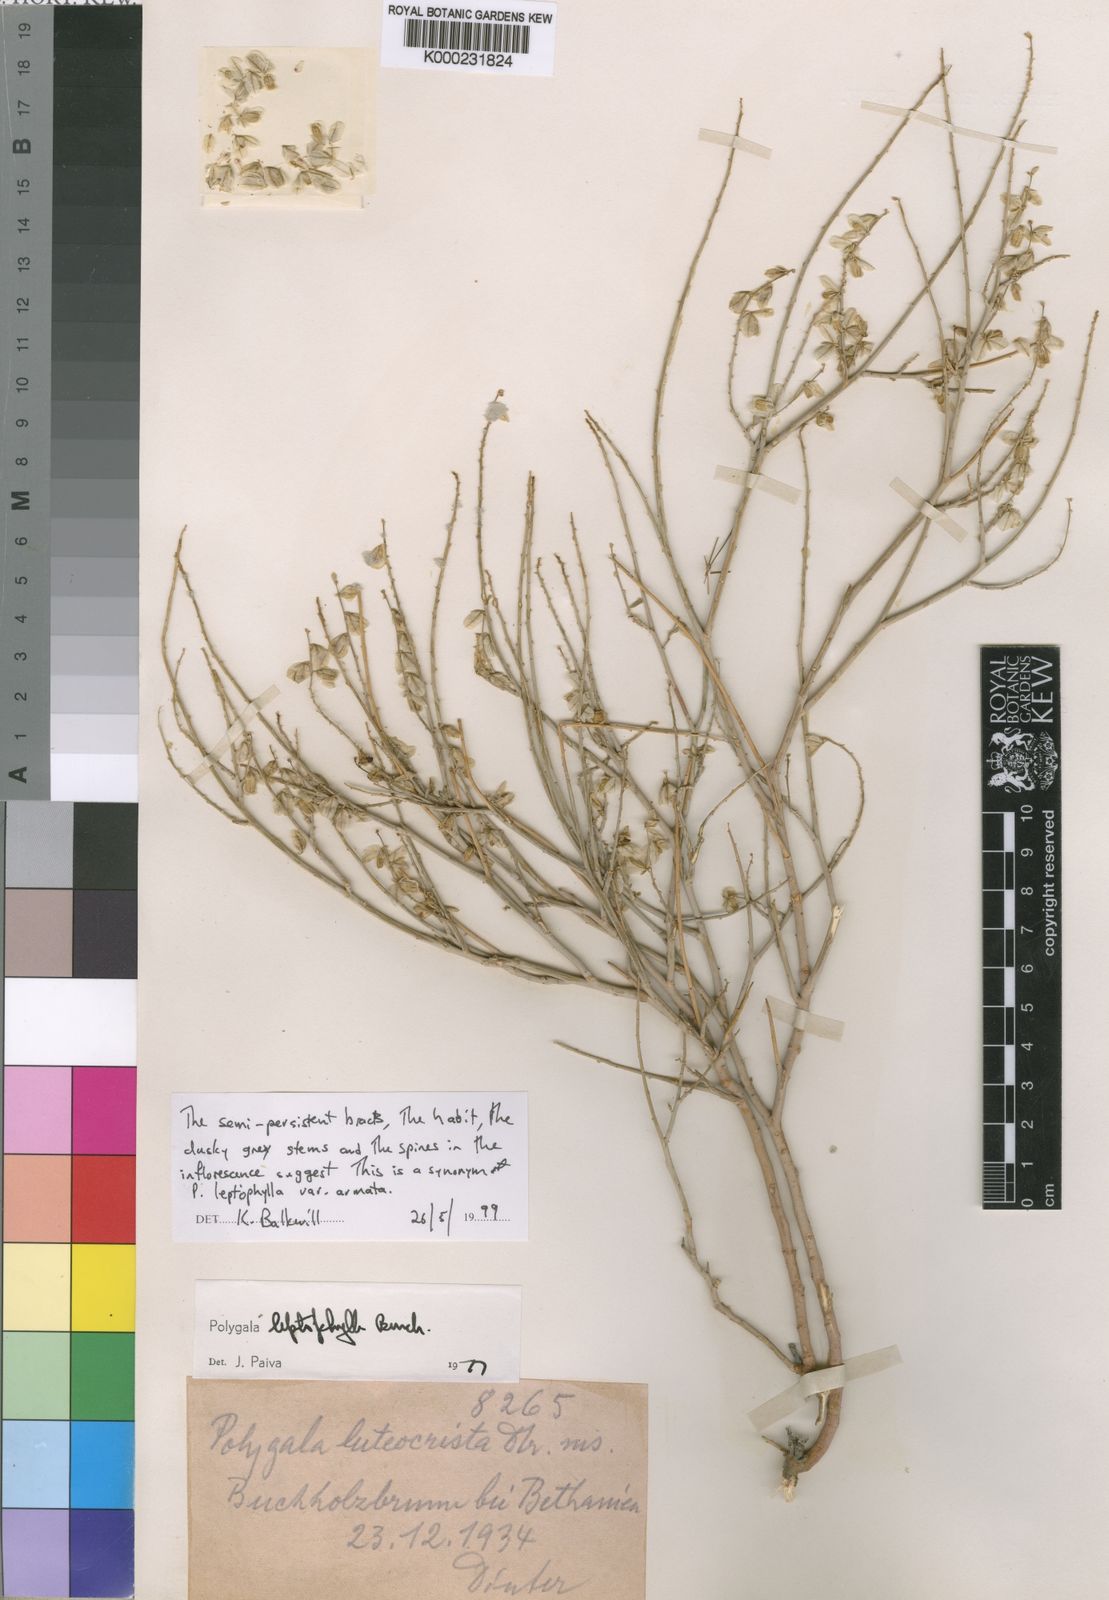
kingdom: Plantae
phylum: Tracheophyta
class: Magnoliopsida
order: Fabales
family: Polygalaceae
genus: Polygala
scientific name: Polygala leptophylla
